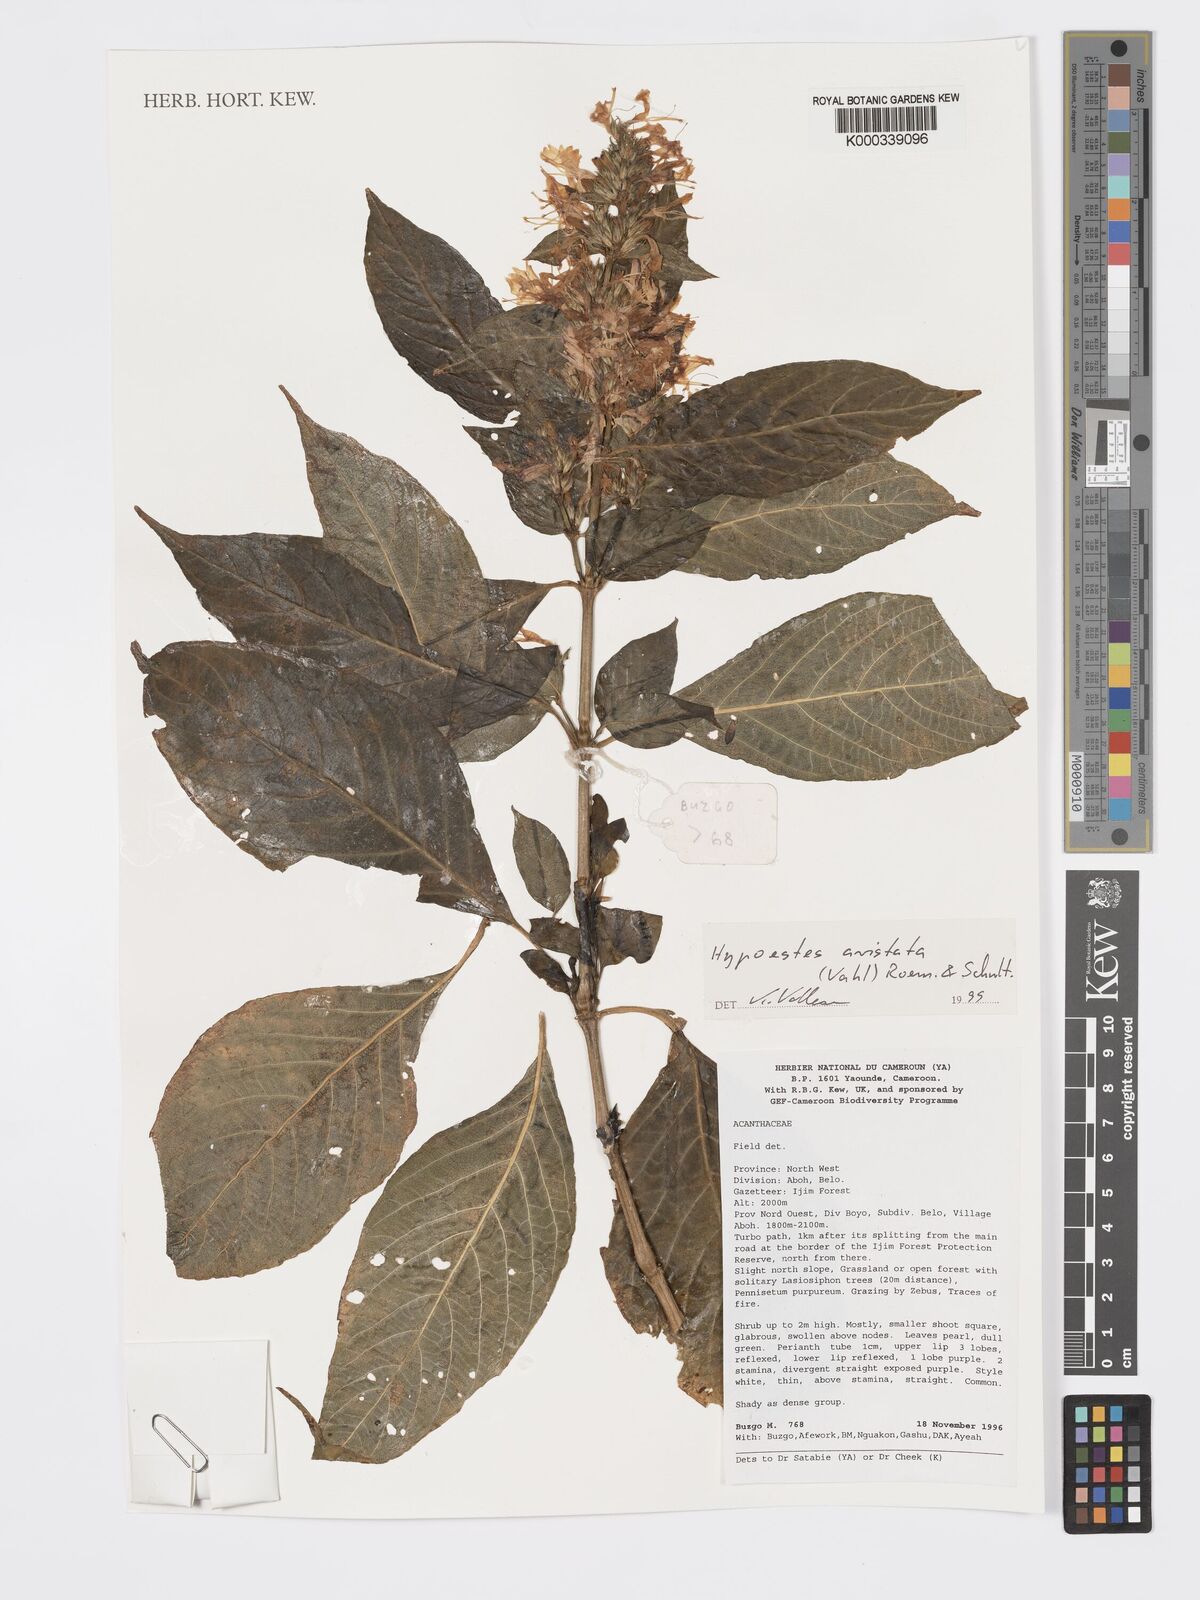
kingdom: Plantae
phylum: Tracheophyta
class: Magnoliopsida
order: Lamiales
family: Acanthaceae
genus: Hypoestes
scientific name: Hypoestes aristata
